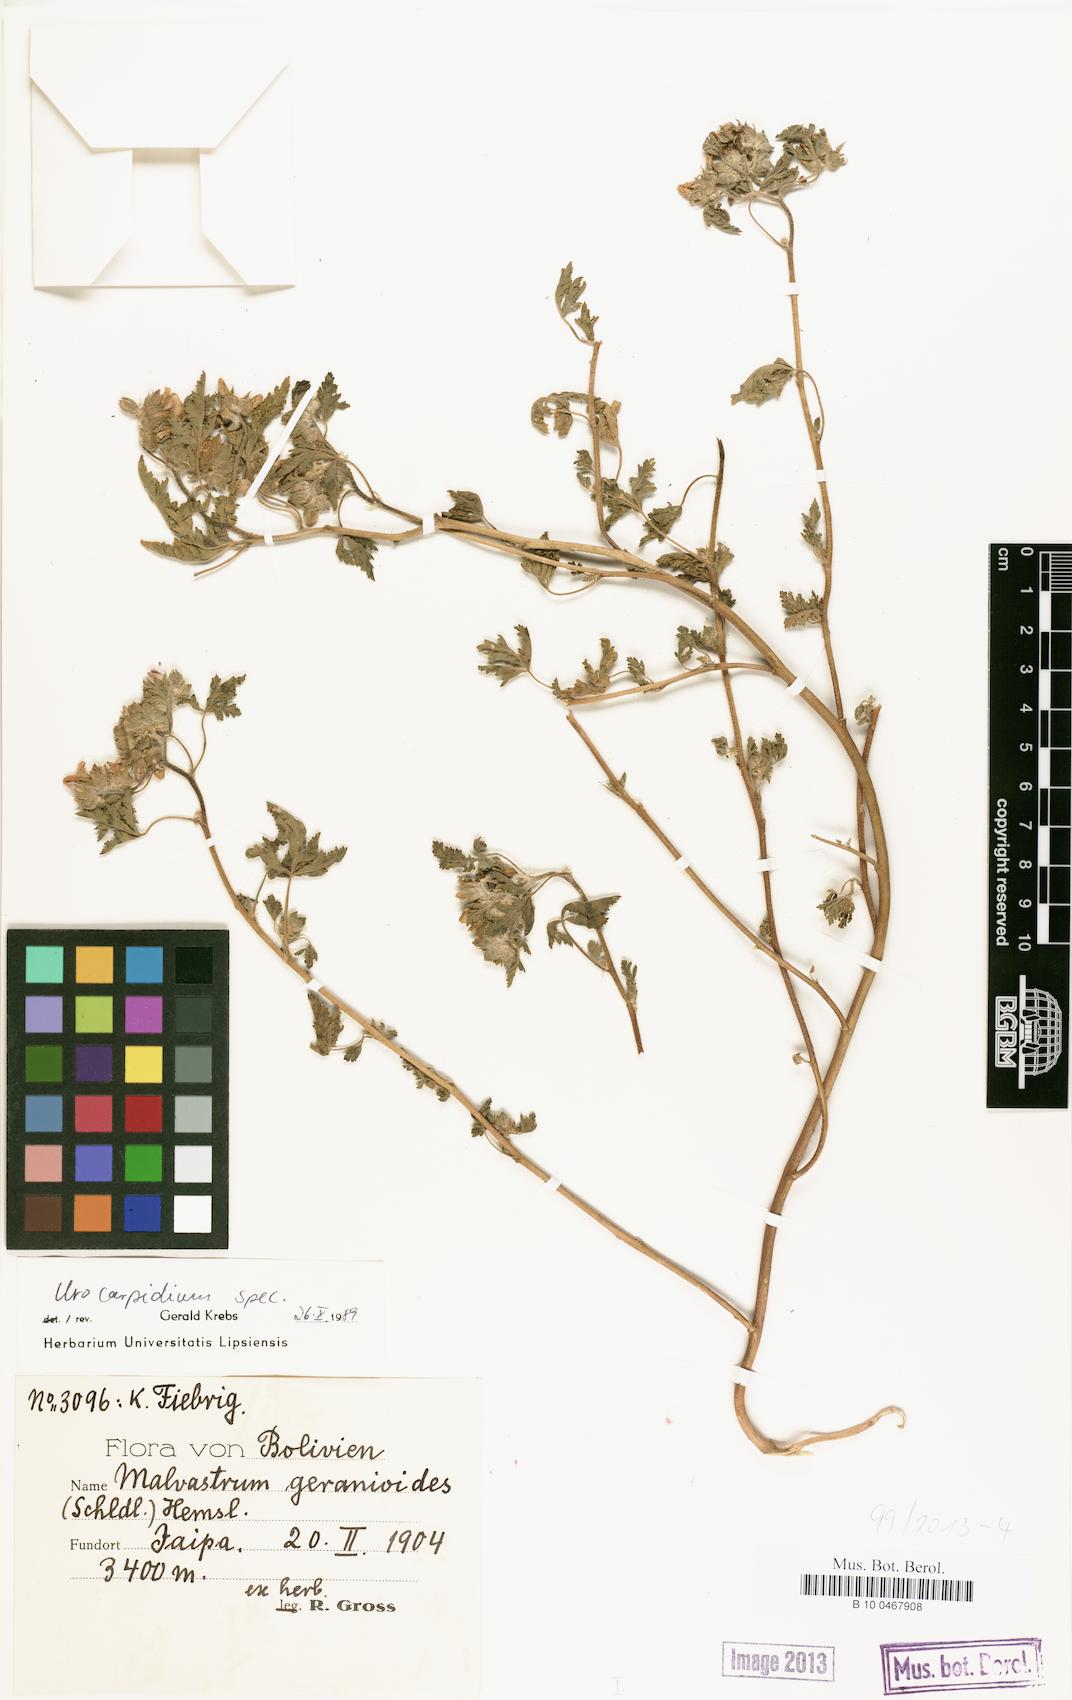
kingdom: Plantae
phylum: Tracheophyta
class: Magnoliopsida
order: Malvales
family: Malvaceae
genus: Tarasa
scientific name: Tarasa geranioides
